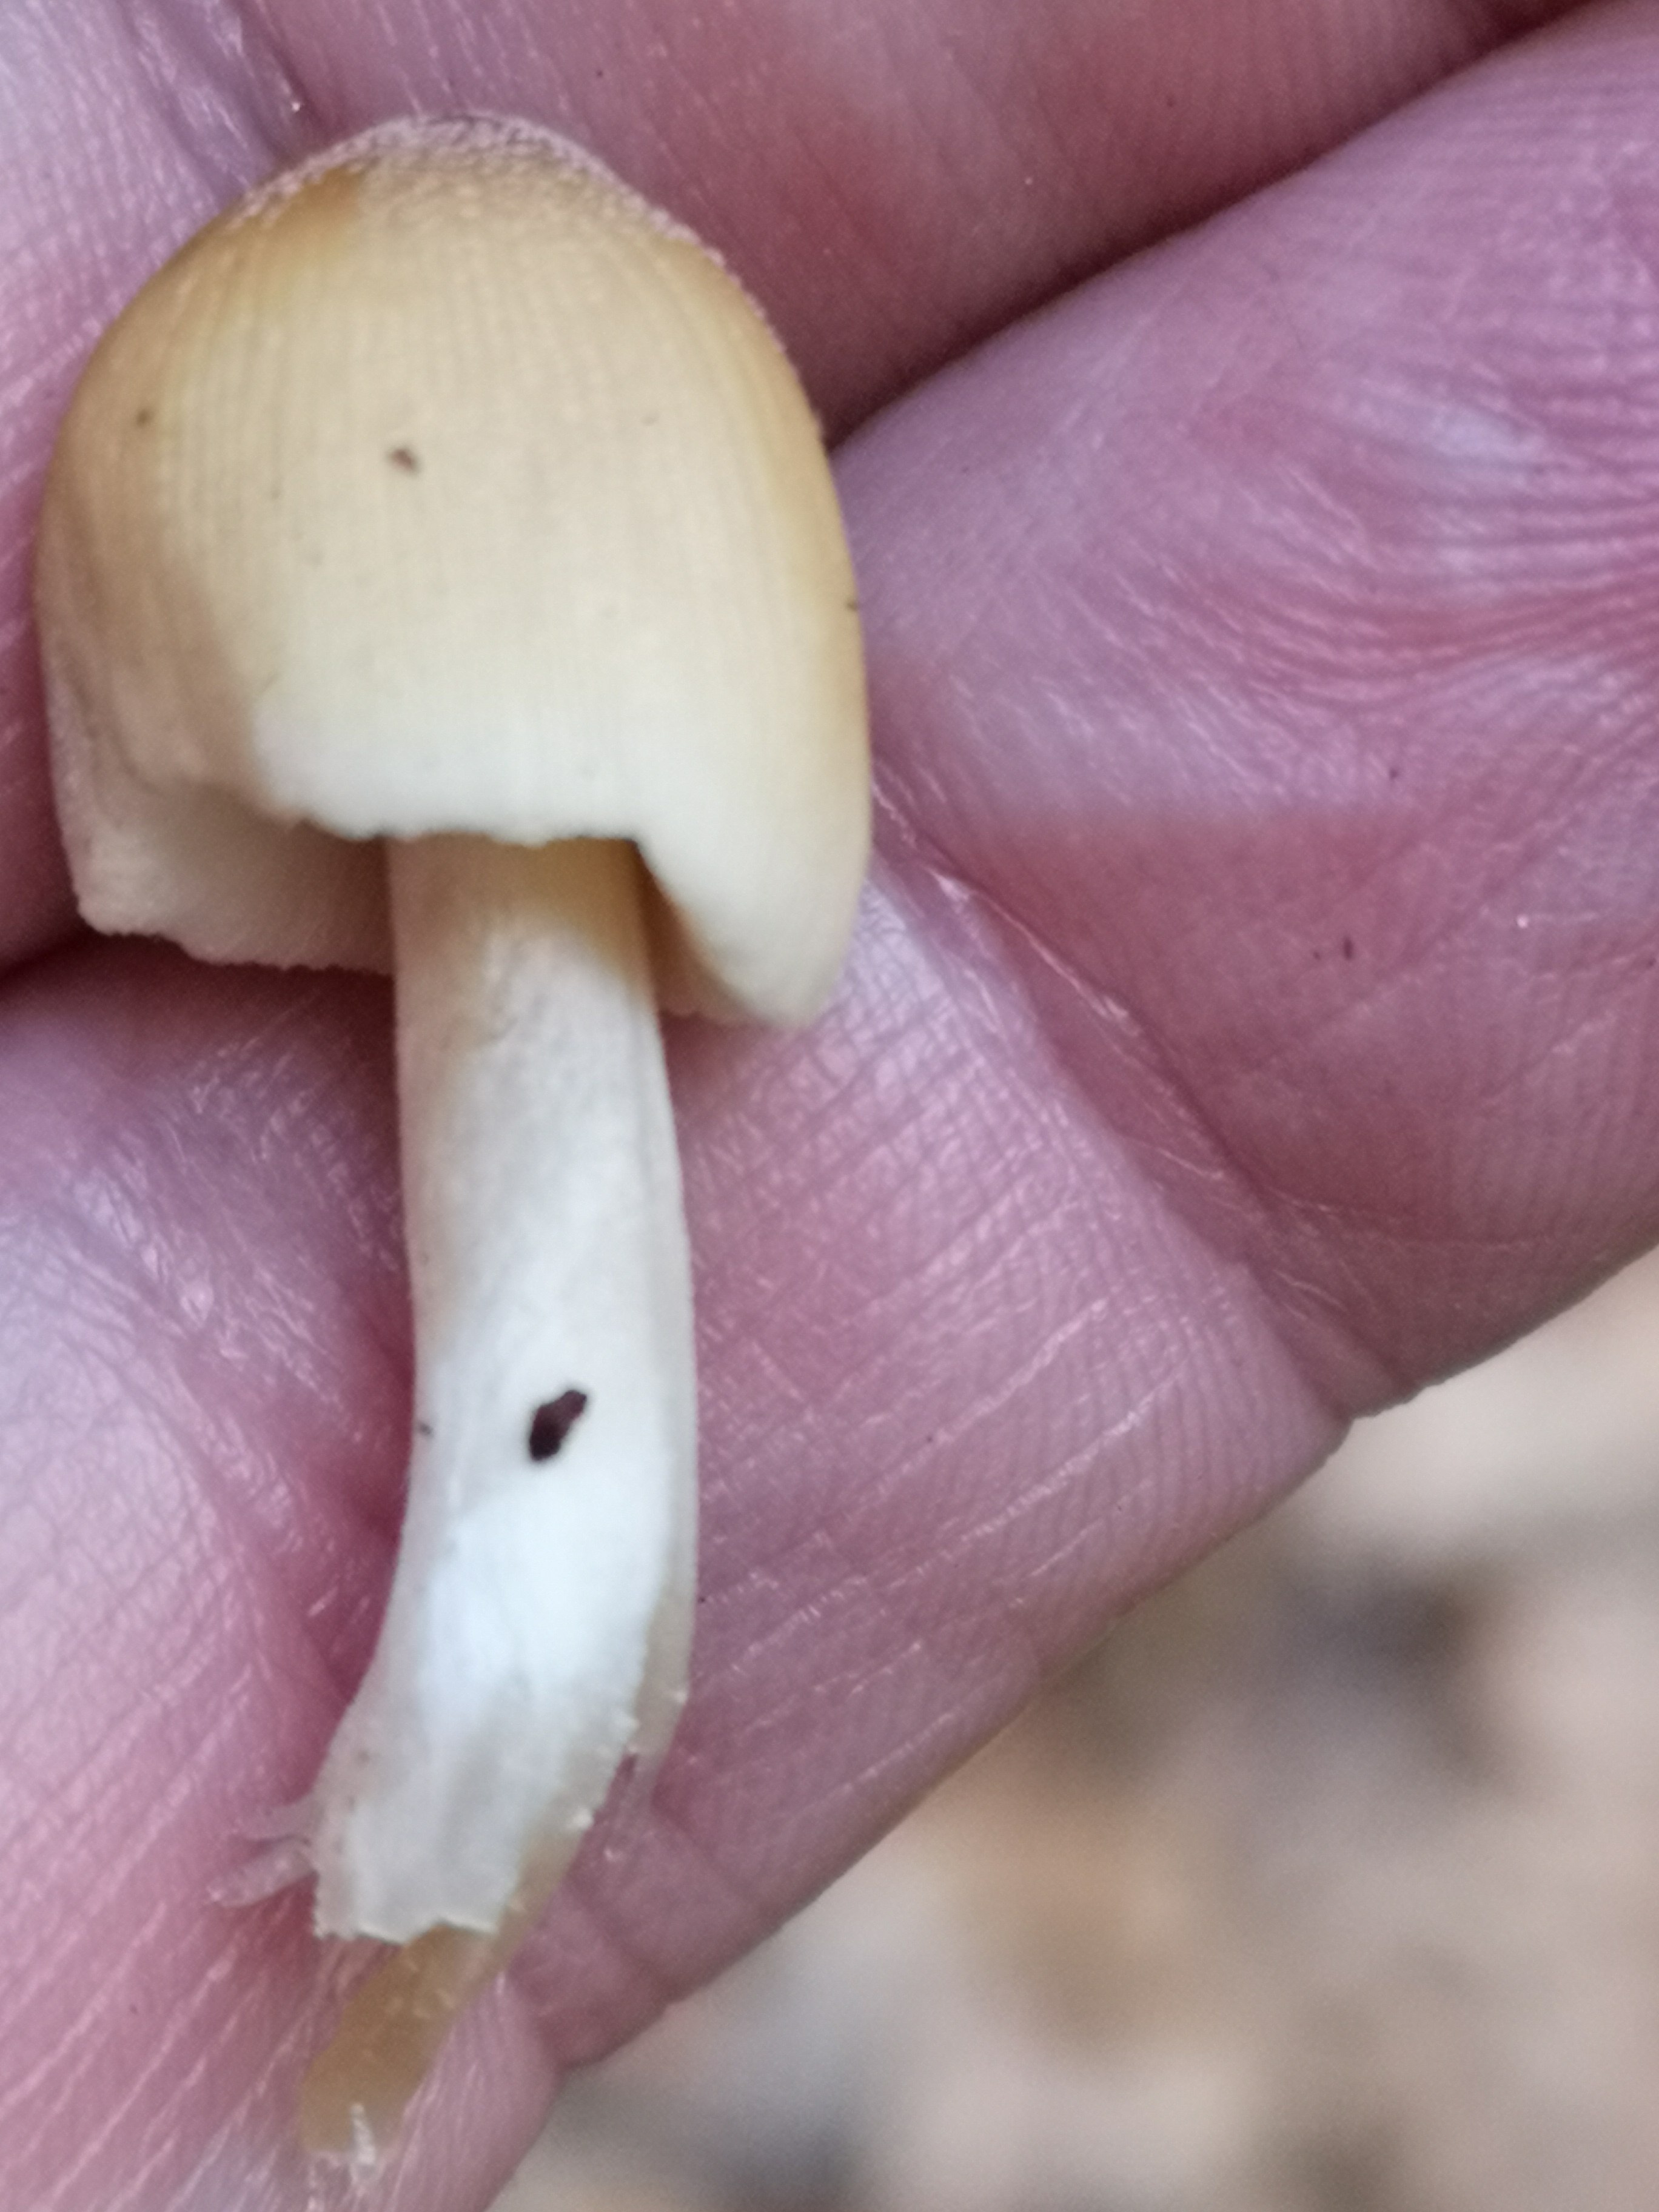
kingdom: Fungi
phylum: Basidiomycota
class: Agaricomycetes
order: Agaricales
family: Psathyrellaceae
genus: Coprinellus
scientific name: Coprinellus micaceus
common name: glimmer-blækhat
